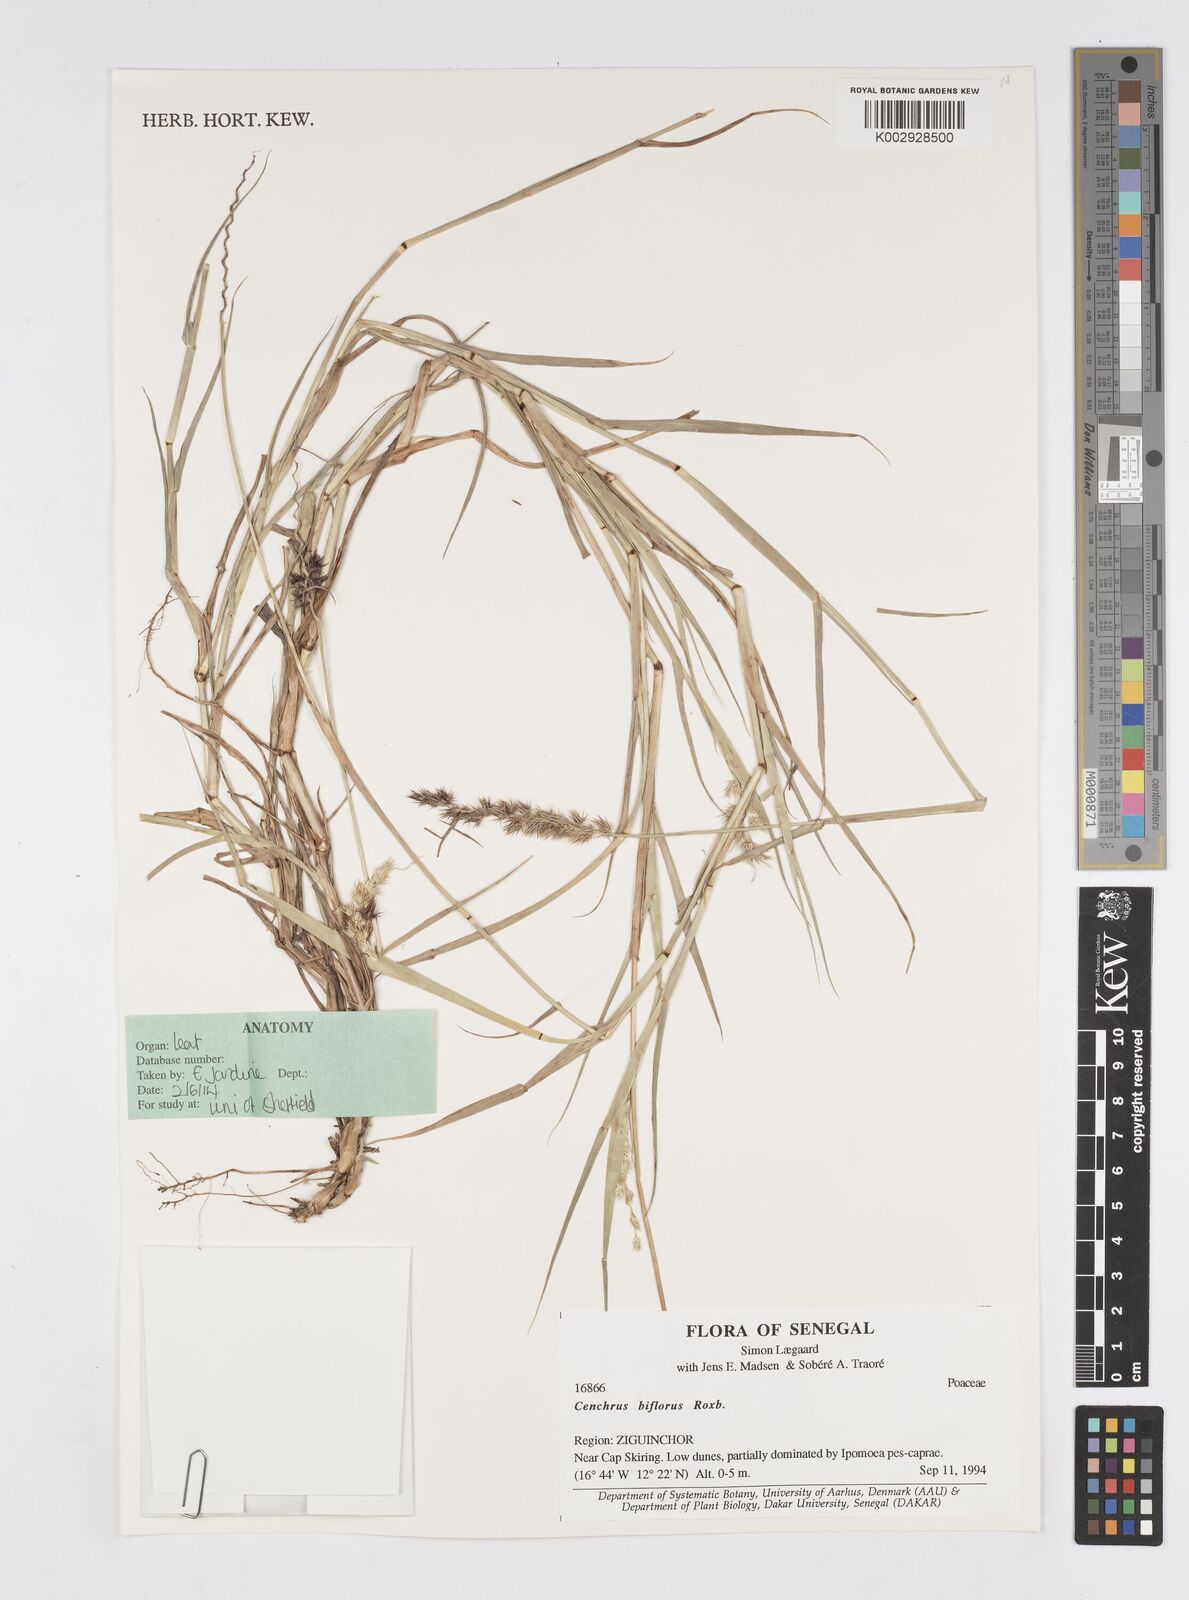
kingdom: Plantae
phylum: Tracheophyta
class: Liliopsida
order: Poales
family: Poaceae
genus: Cenchrus
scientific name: Cenchrus biflorus
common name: Indian sandbur
